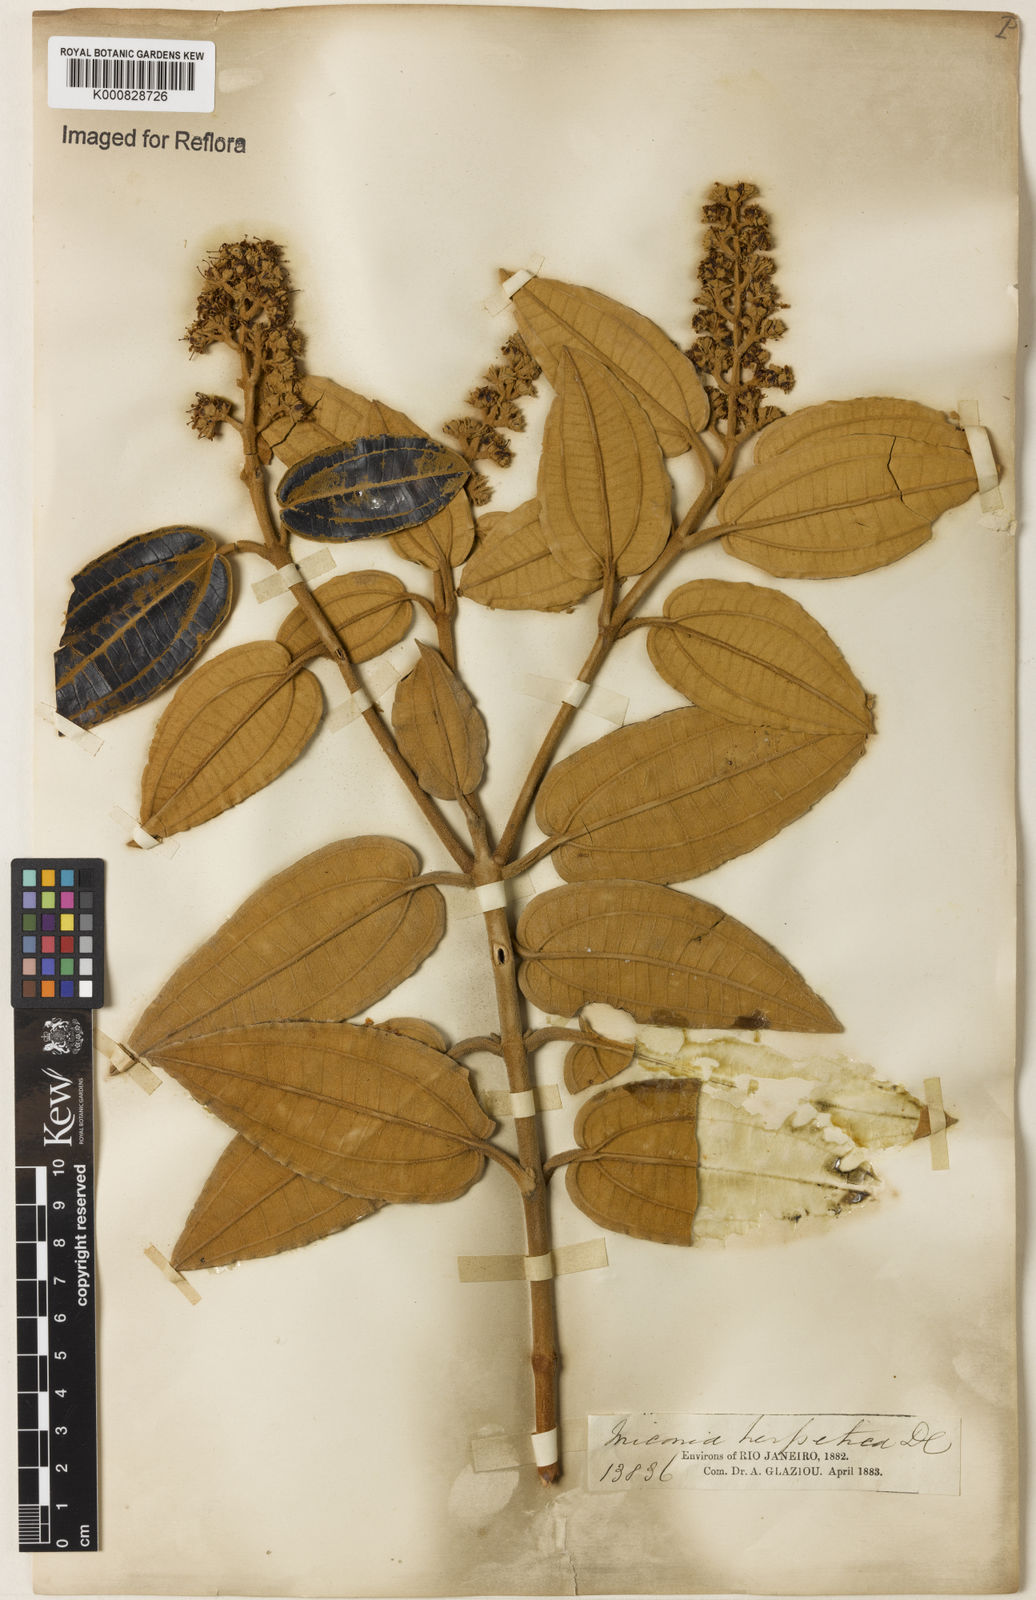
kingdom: Plantae
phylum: Tracheophyta
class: Magnoliopsida
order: Myrtales
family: Melastomataceae
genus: Miconia
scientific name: Miconia herpetica
